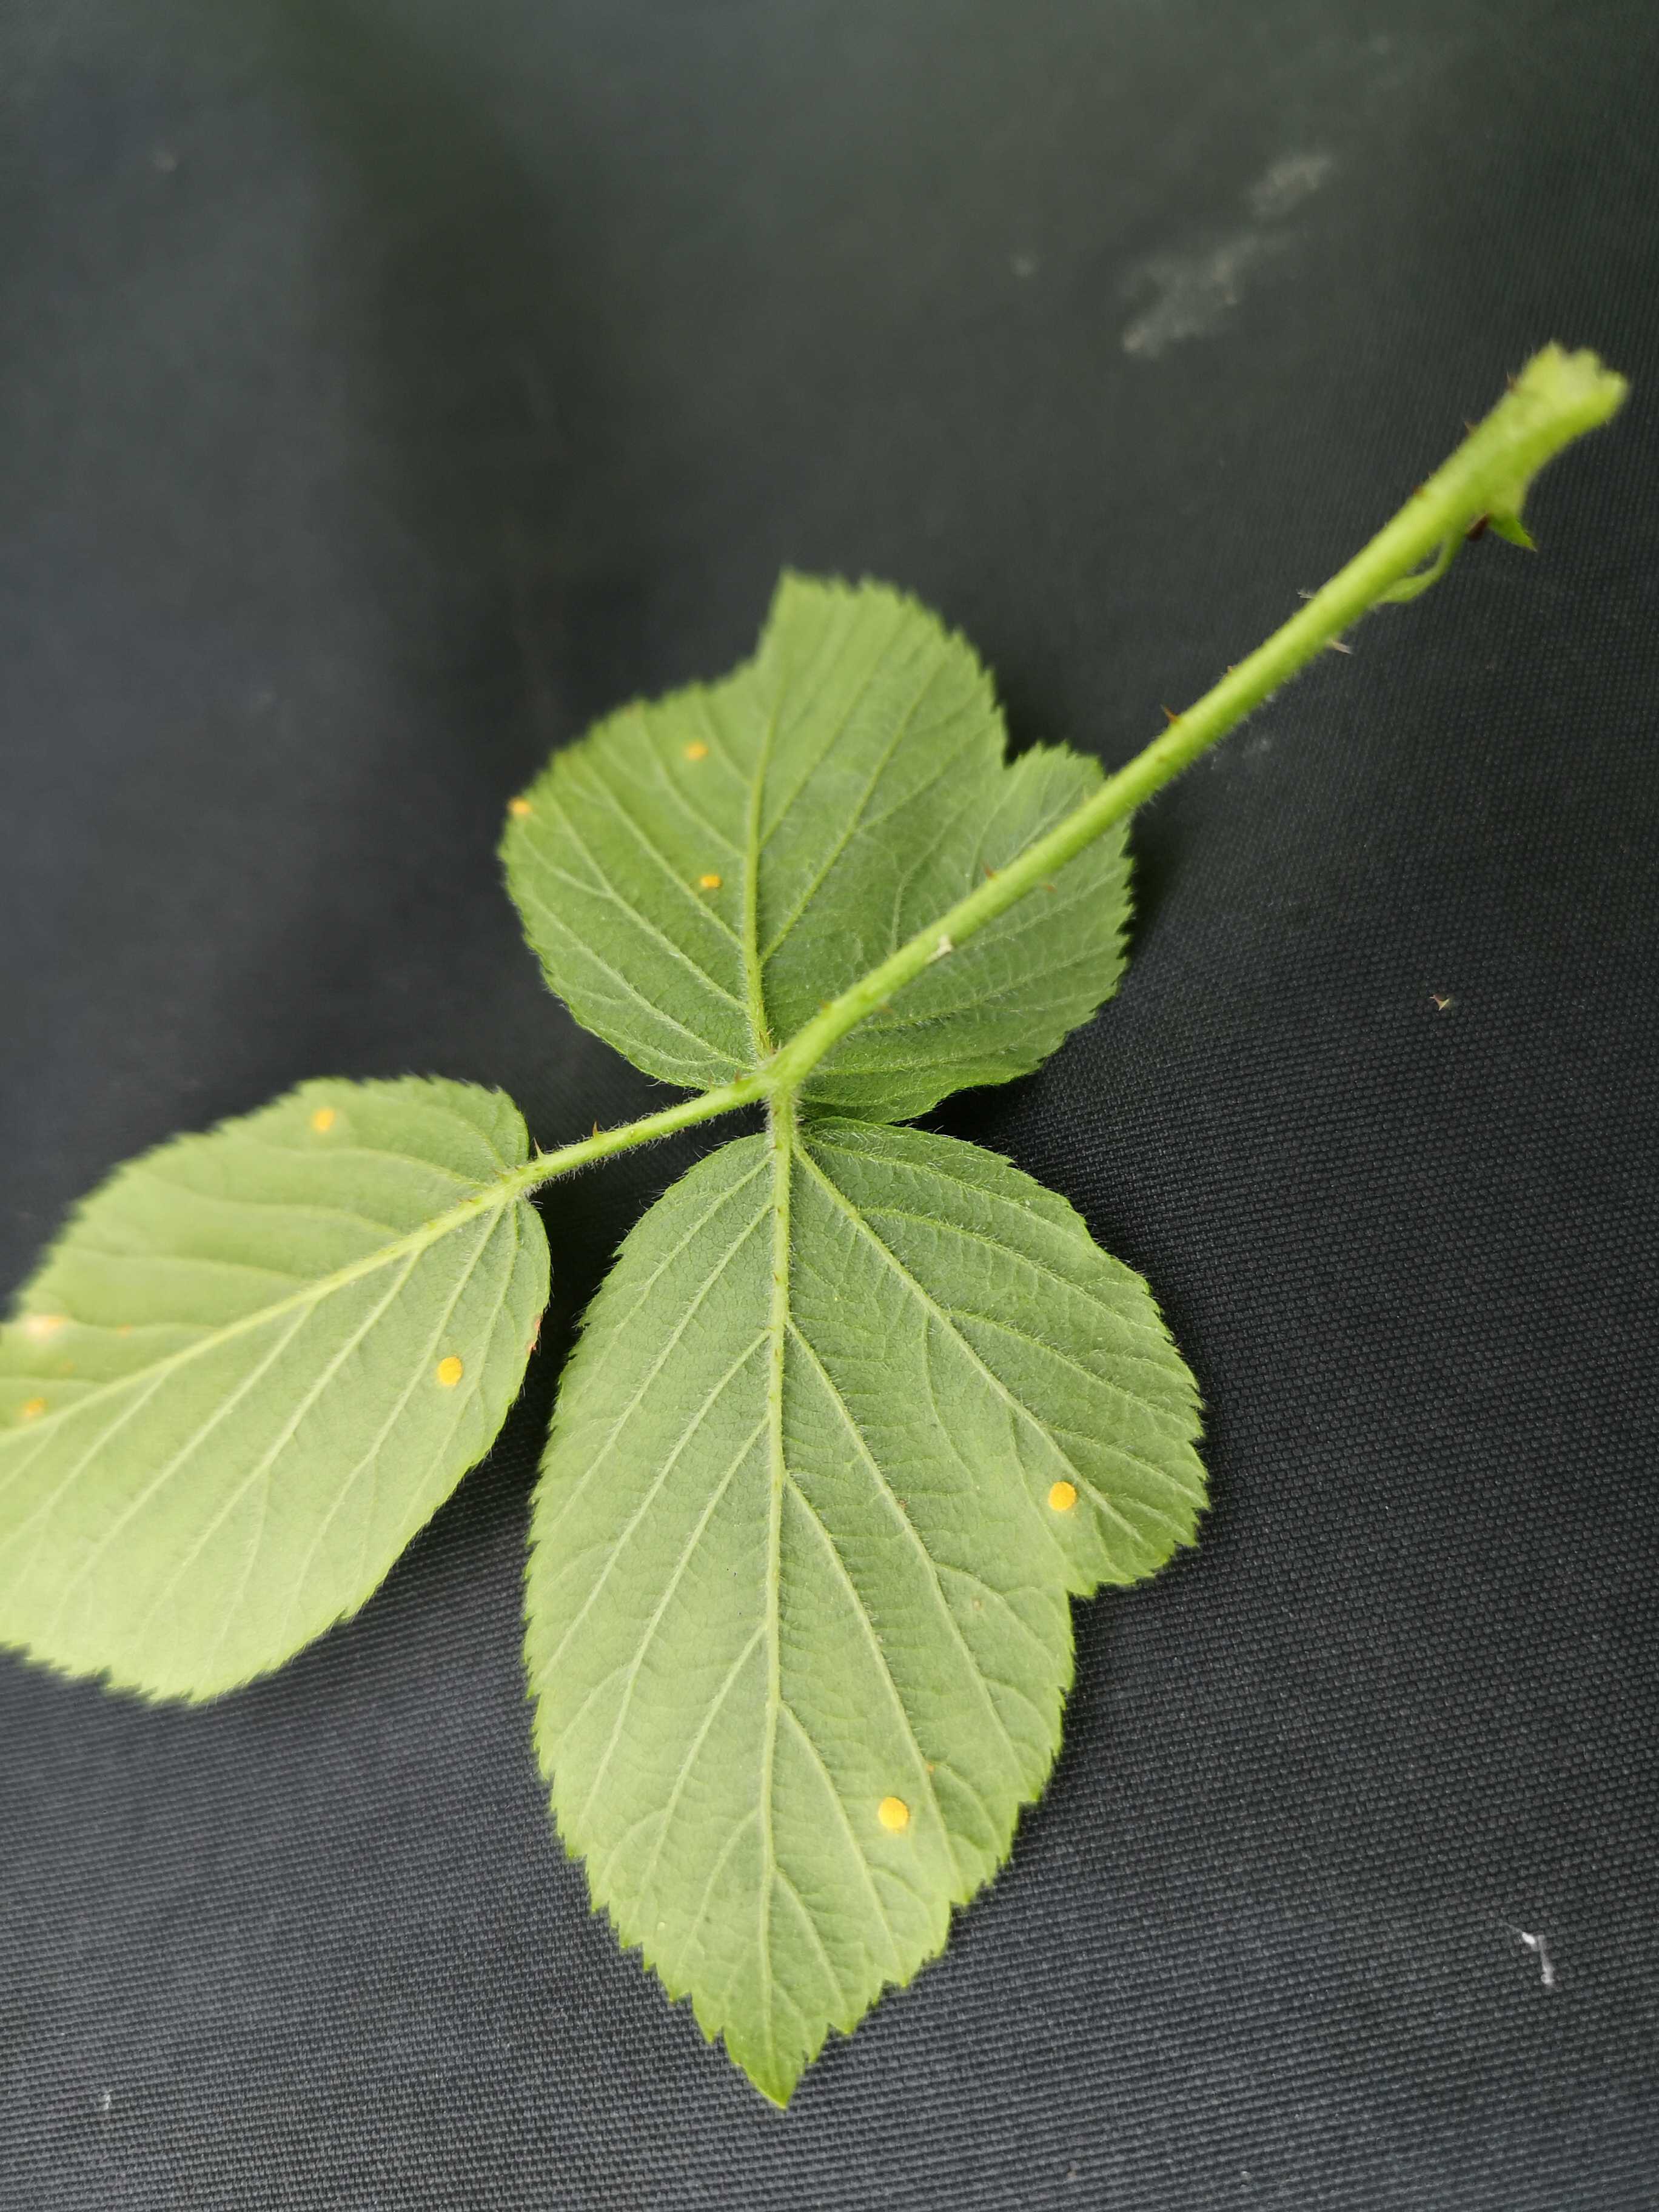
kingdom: Fungi
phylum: Basidiomycota
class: Pucciniomycetes
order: Pucciniales
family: Phragmidiaceae
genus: Phragmidium
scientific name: Phragmidium
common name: flercellerust
